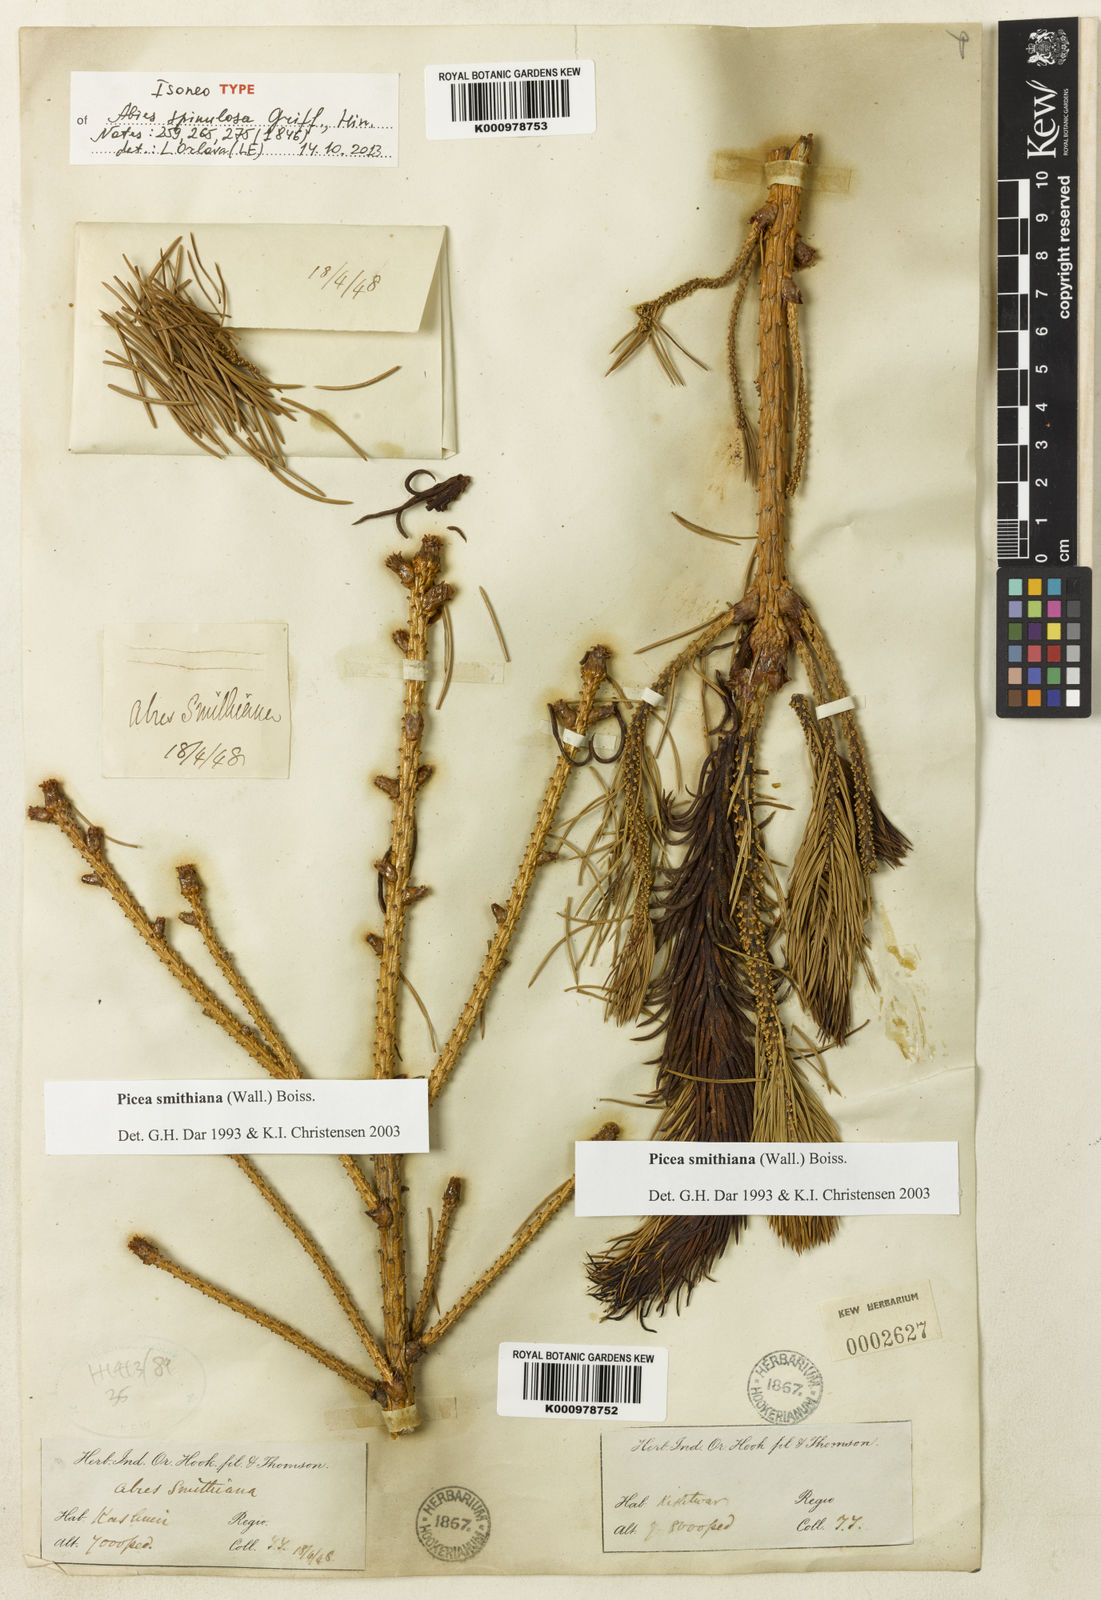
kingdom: Plantae
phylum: Tracheophyta
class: Pinopsida
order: Pinales
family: Pinaceae
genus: Picea
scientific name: Picea spinulosa
